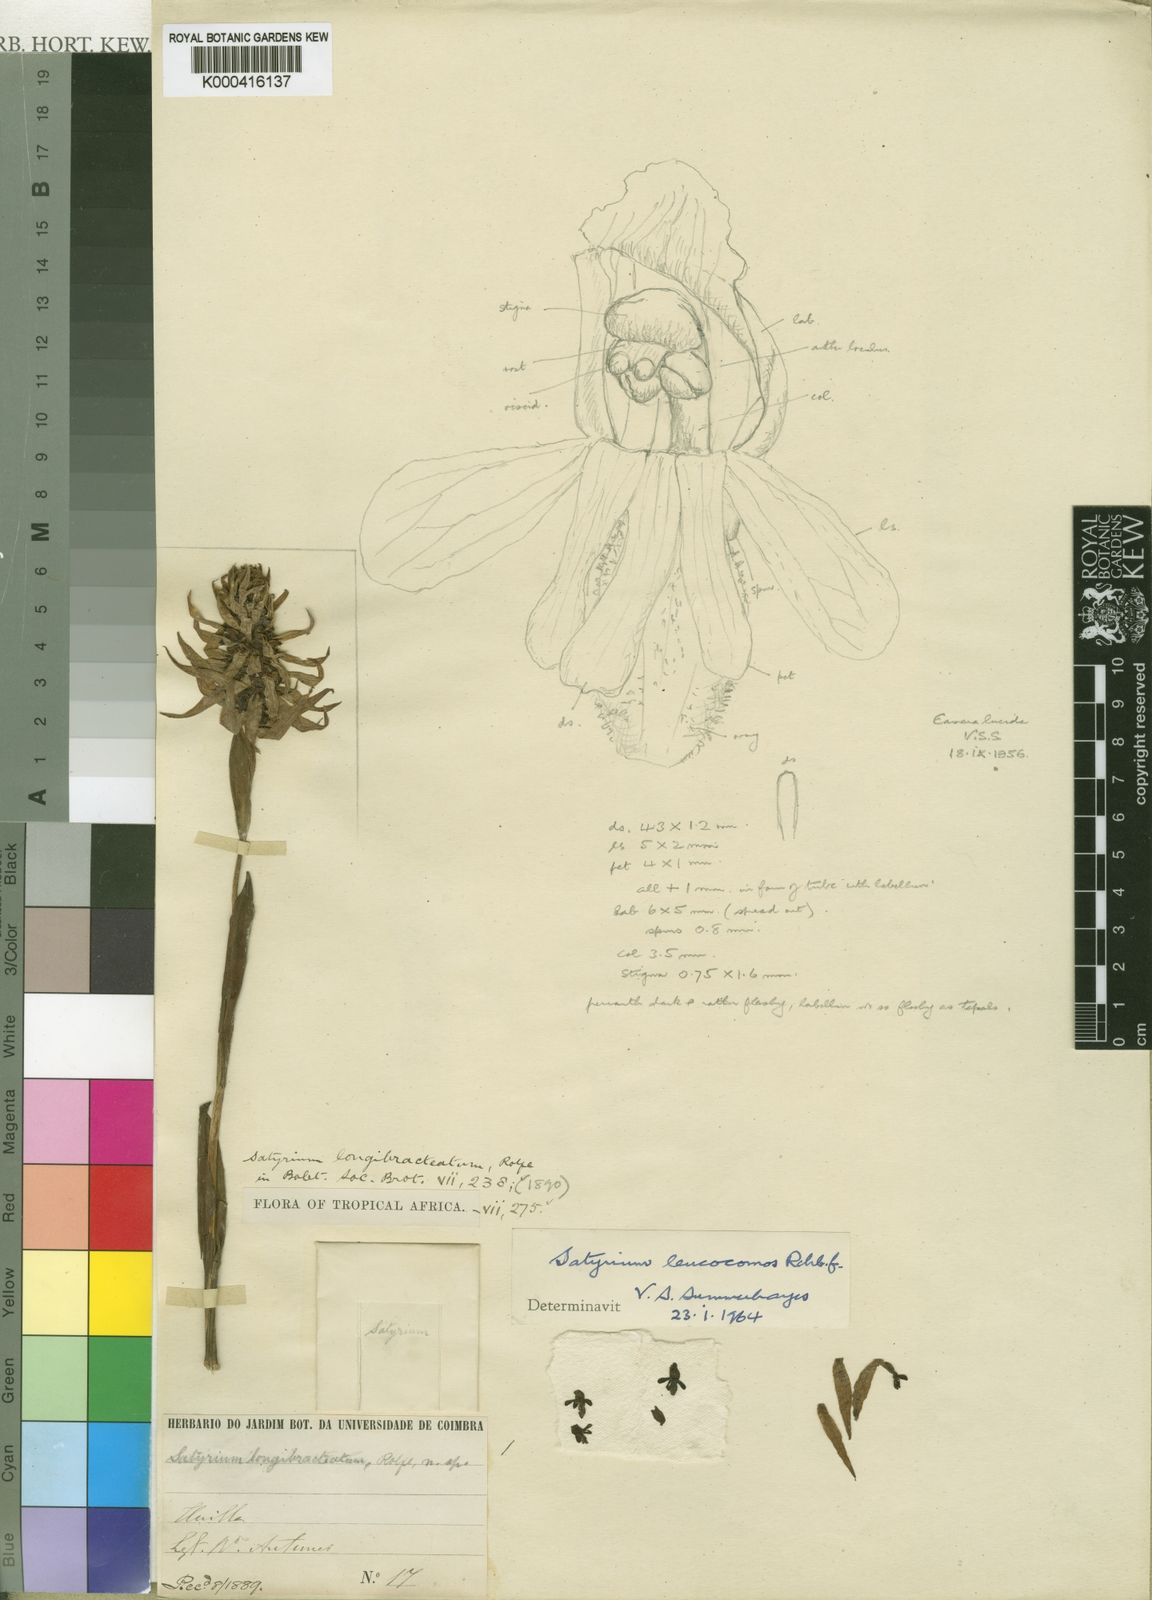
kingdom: Plantae
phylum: Tracheophyta
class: Liliopsida
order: Asparagales
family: Orchidaceae
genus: Satyrium
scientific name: Satyrium trinerve
